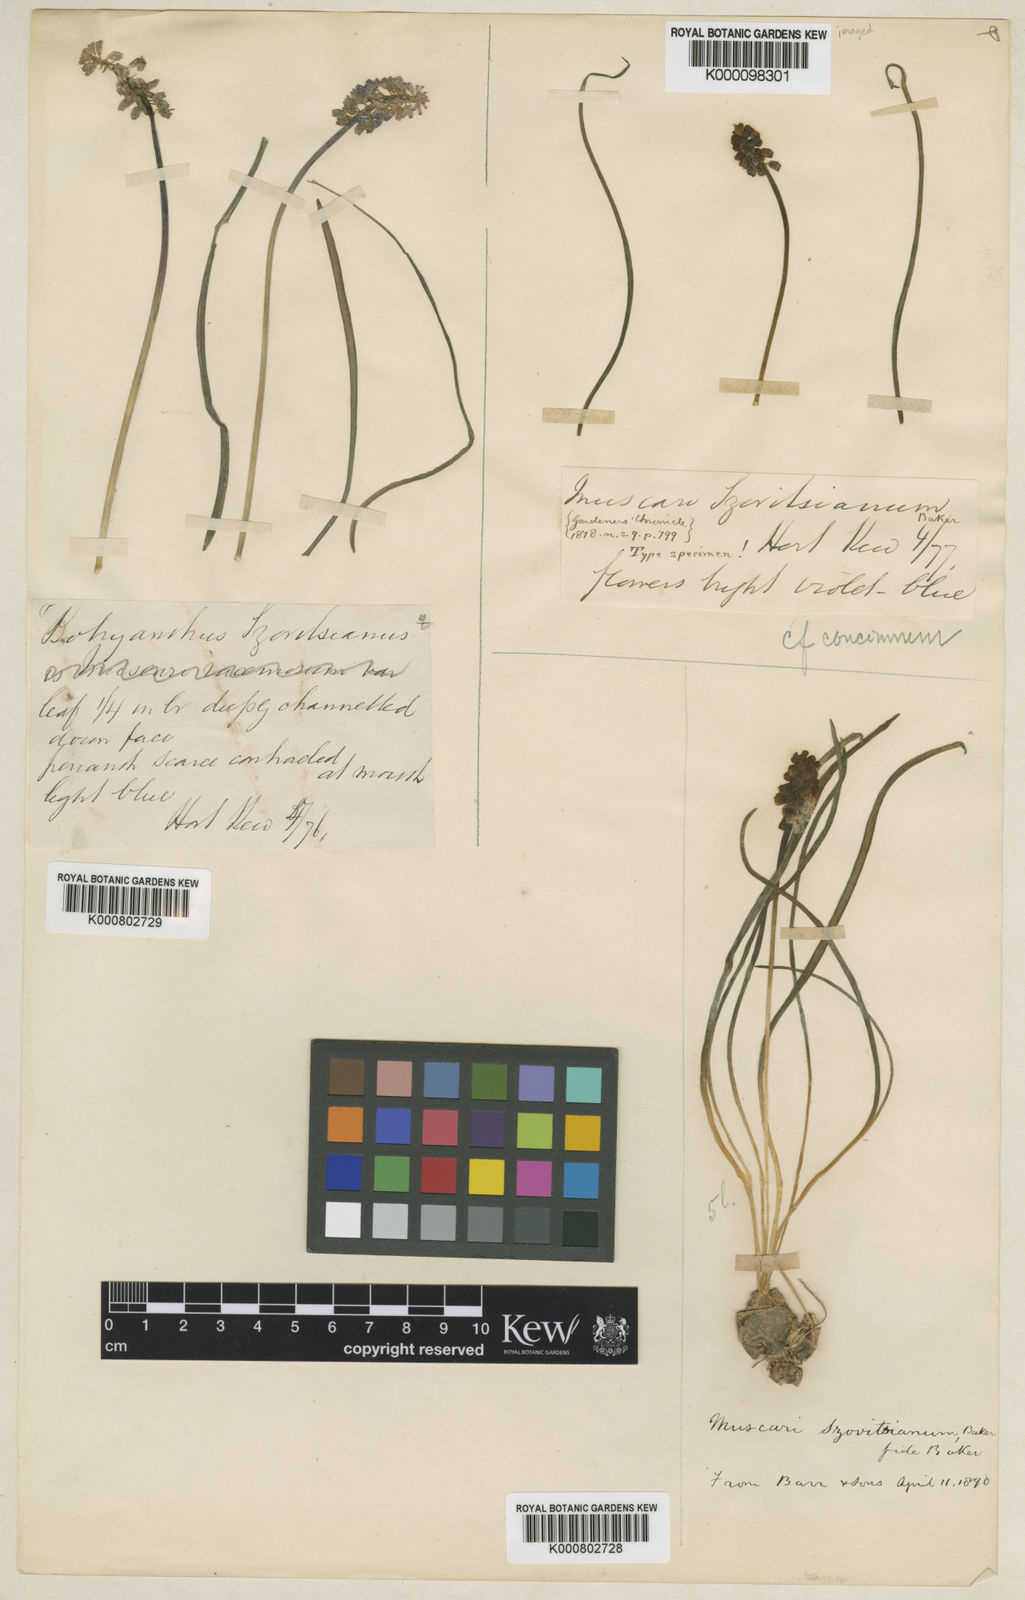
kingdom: Plantae
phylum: Tracheophyta
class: Liliopsida
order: Asparagales
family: Asparagaceae
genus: Muscari
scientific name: Muscari armeniacum
